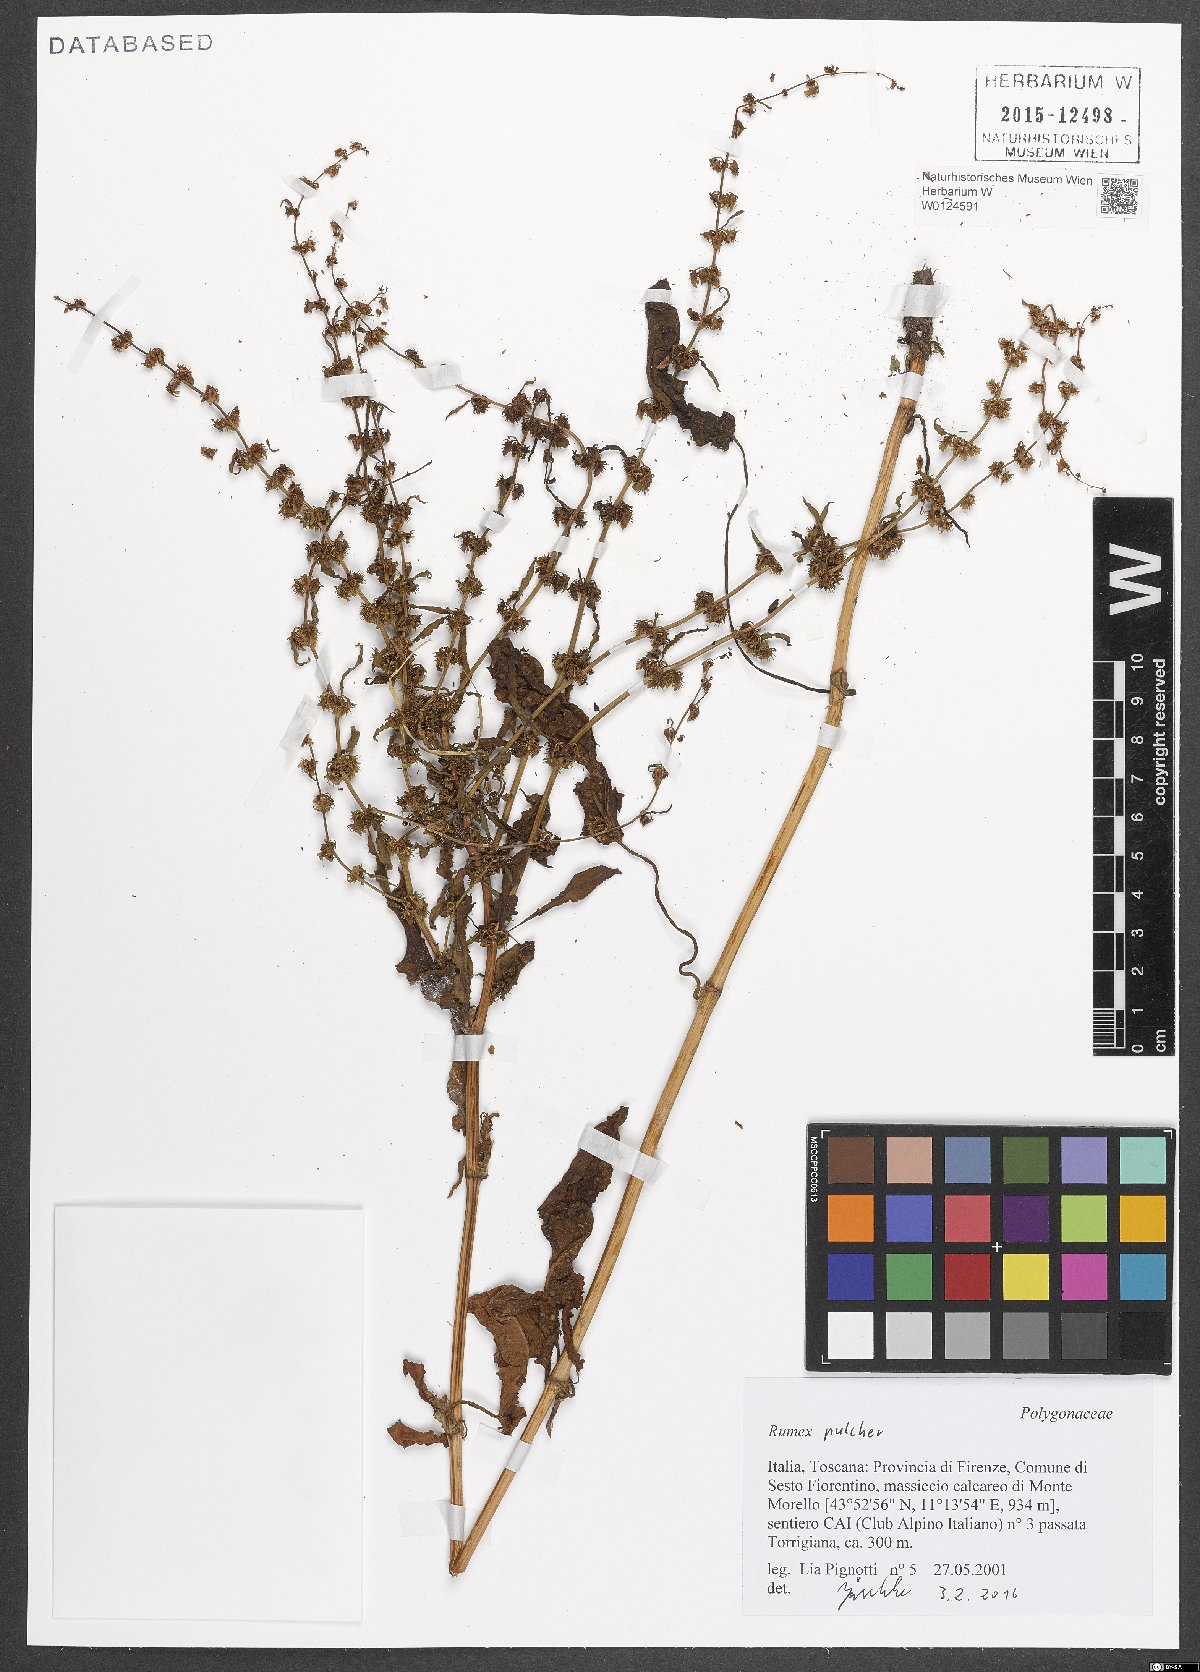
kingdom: Plantae
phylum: Tracheophyta
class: Magnoliopsida
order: Caryophyllales
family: Polygonaceae
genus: Rumex
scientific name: Rumex pulcher
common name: Fiddle dock
